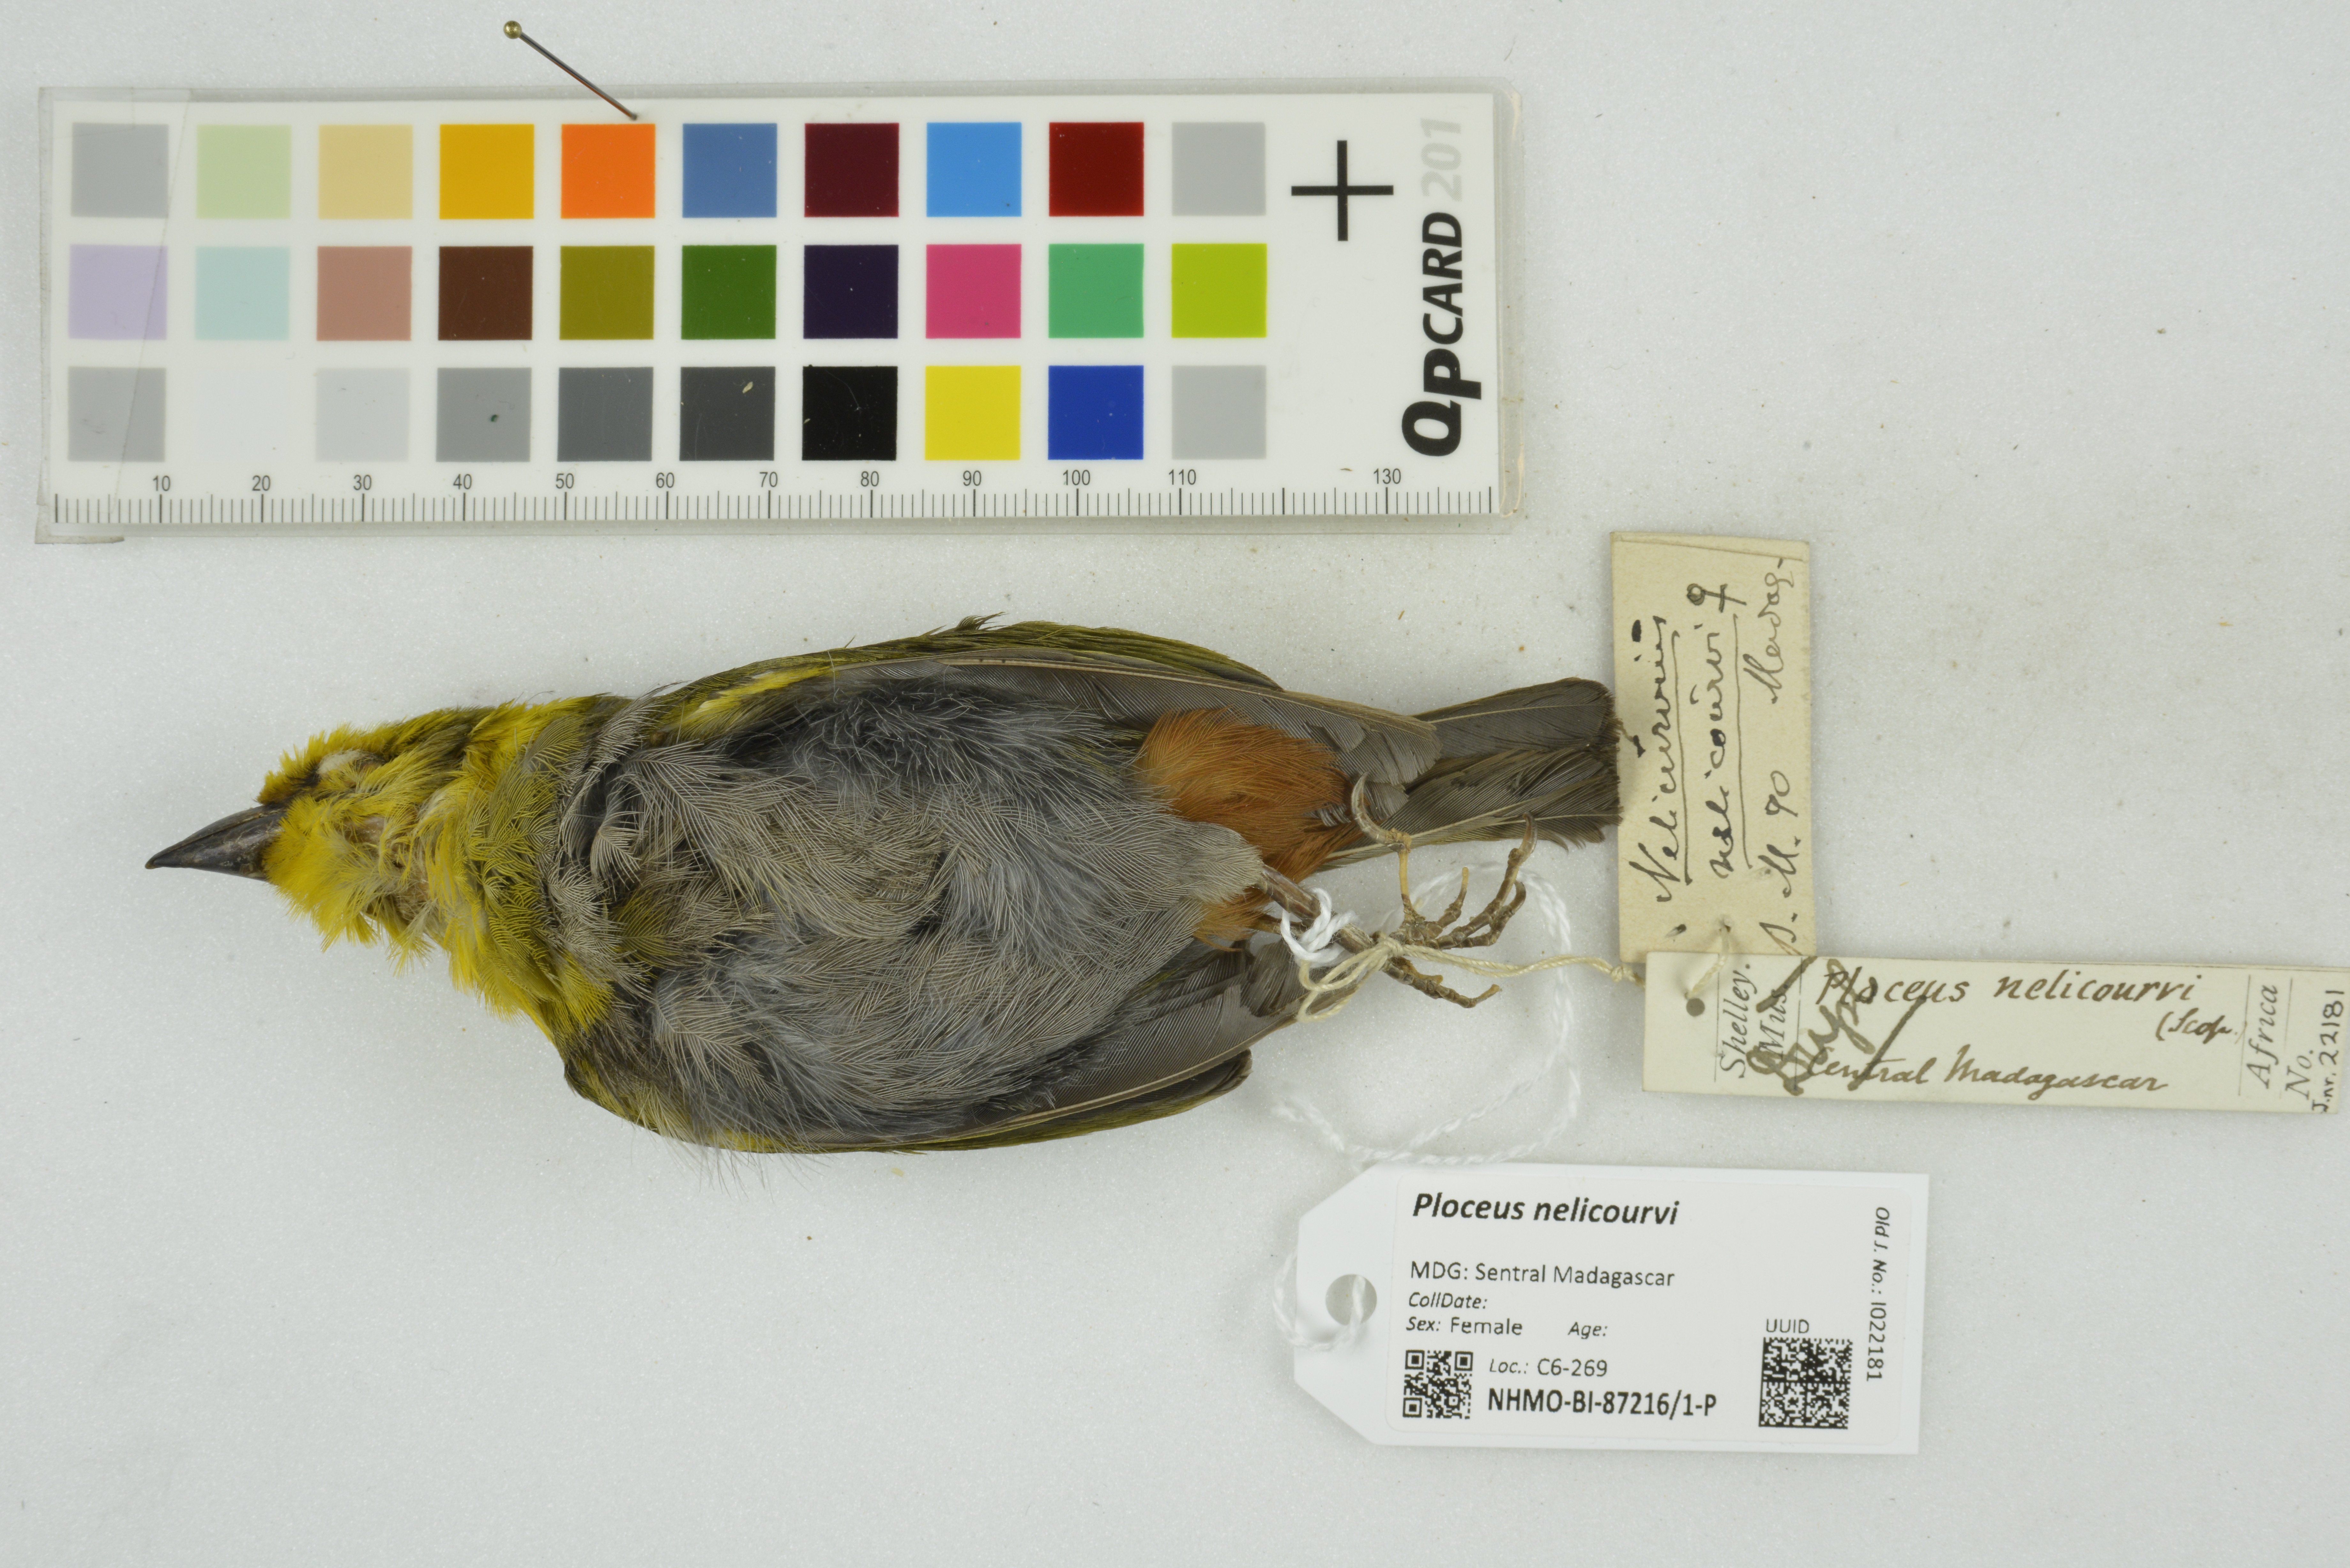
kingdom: Animalia
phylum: Chordata
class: Aves
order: Passeriformes
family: Ploceidae
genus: Ploceus
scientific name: Ploceus nelicourvi
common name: Nelicourvi weaver
